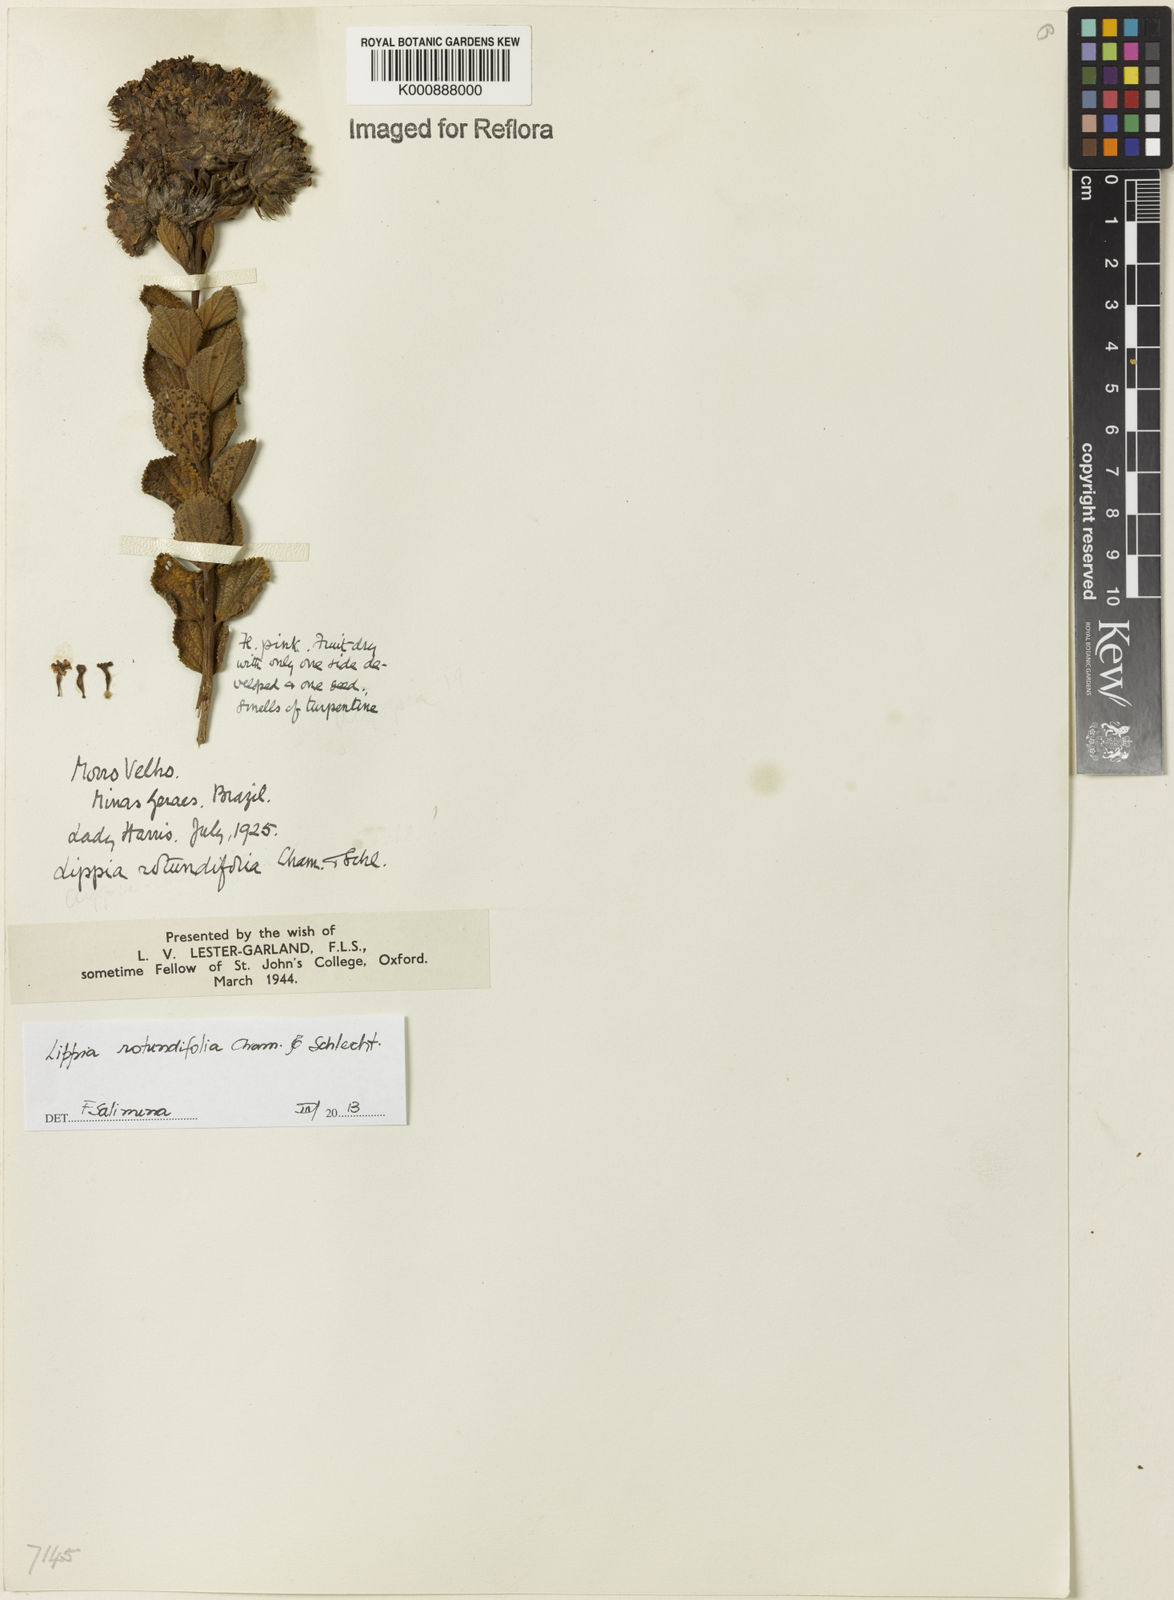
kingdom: Plantae
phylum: Tracheophyta
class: Magnoliopsida
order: Lamiales
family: Verbenaceae
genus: Lippia
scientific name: Lippia rotundifolia
